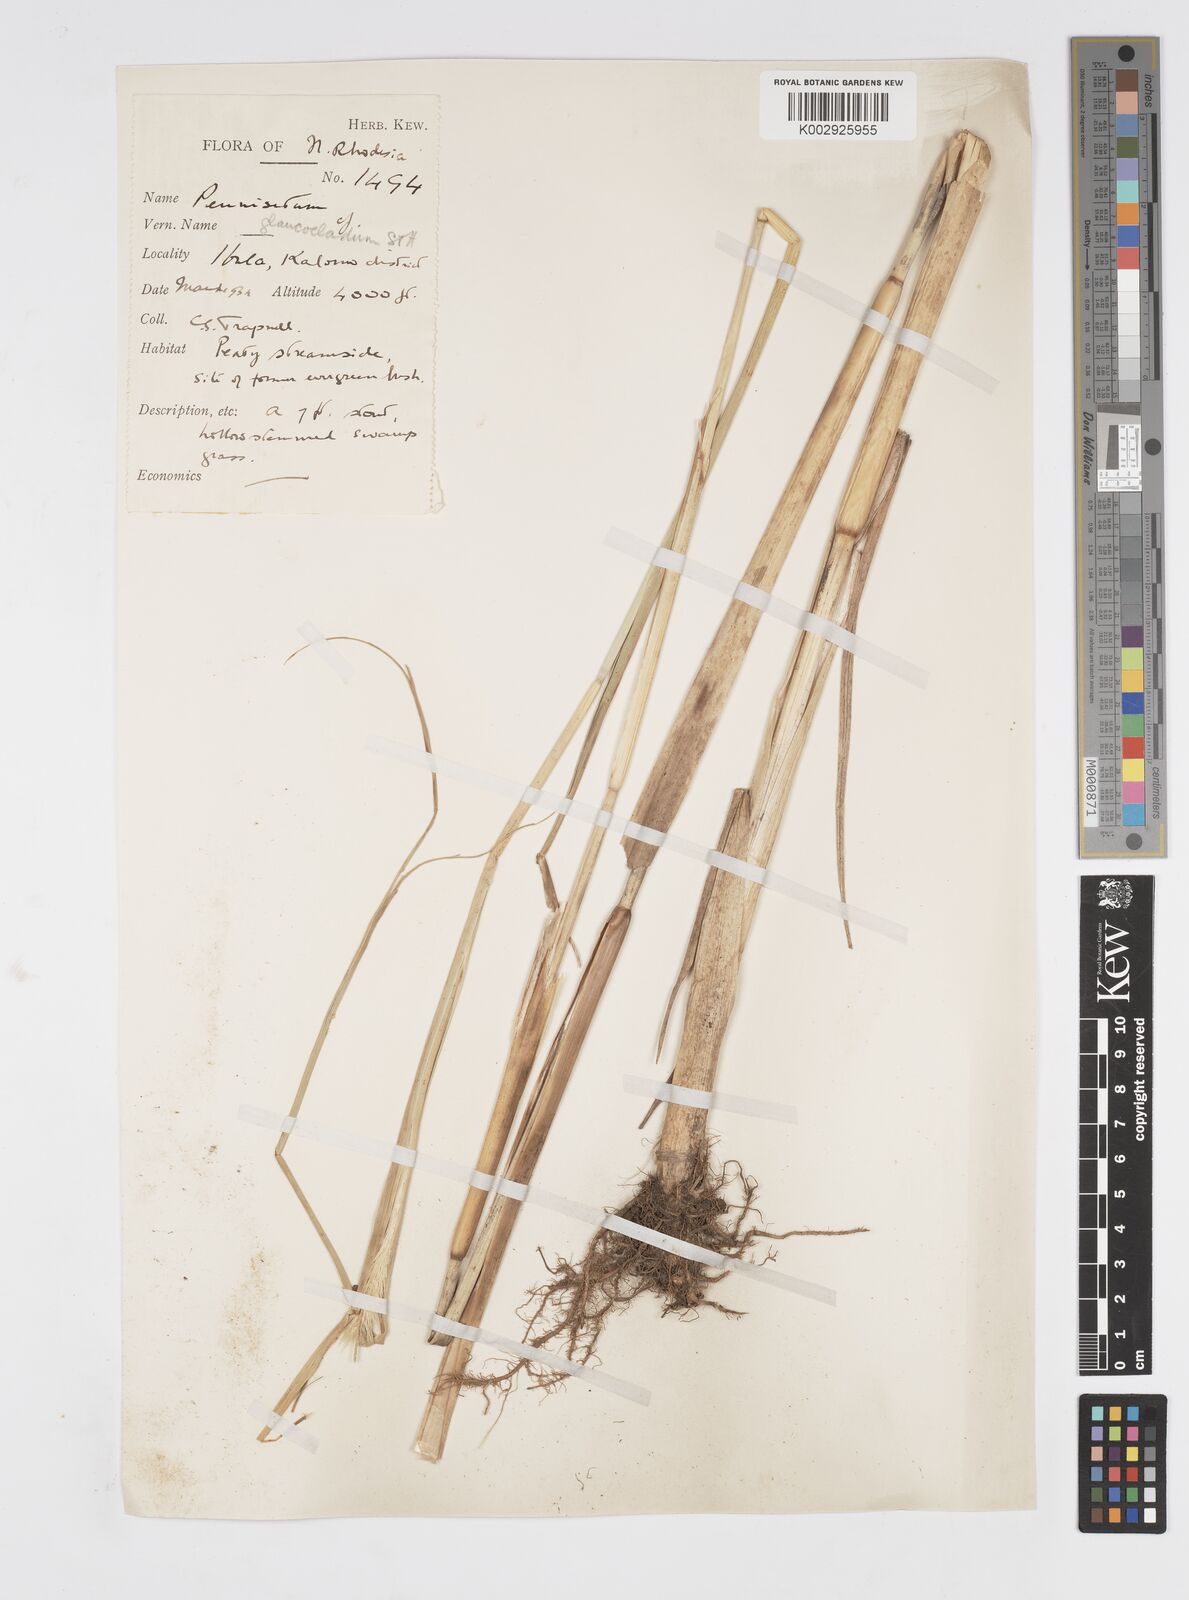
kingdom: Plantae
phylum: Tracheophyta
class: Liliopsida
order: Poales
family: Poaceae
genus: Cenchrus
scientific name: Cenchrus caudatus
